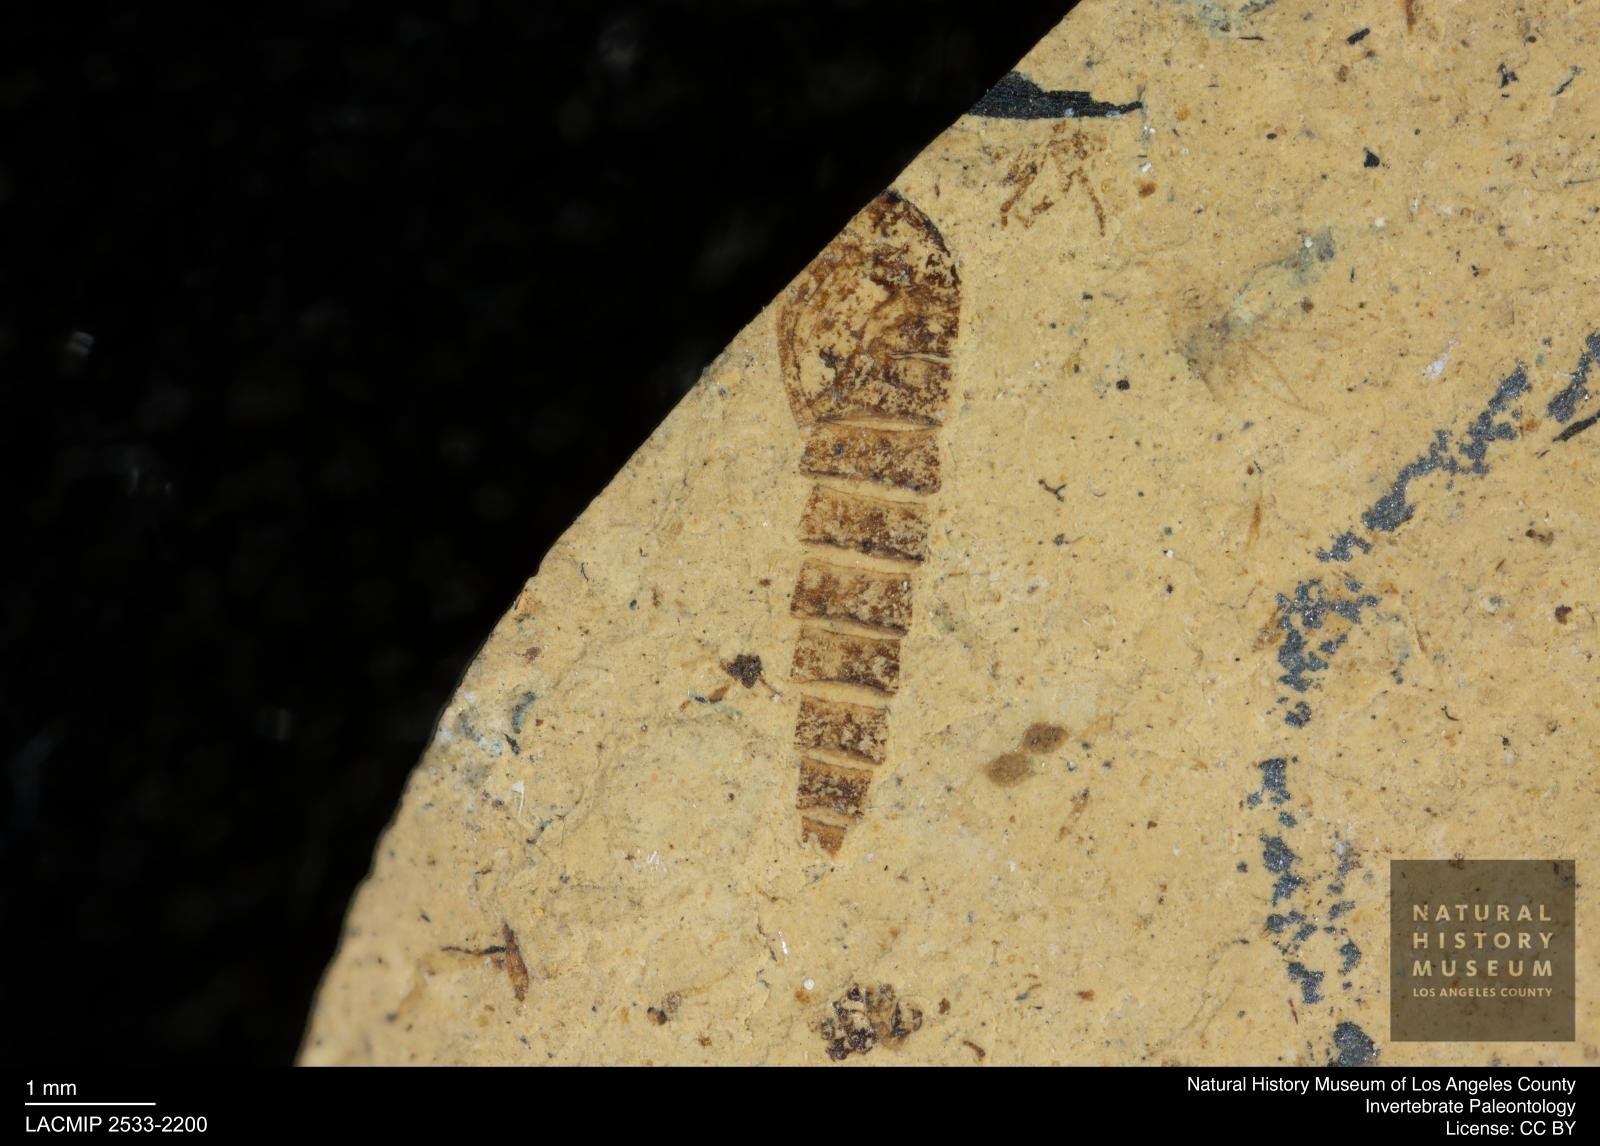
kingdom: Animalia
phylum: Arthropoda
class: Insecta
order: Diptera
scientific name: Diptera
